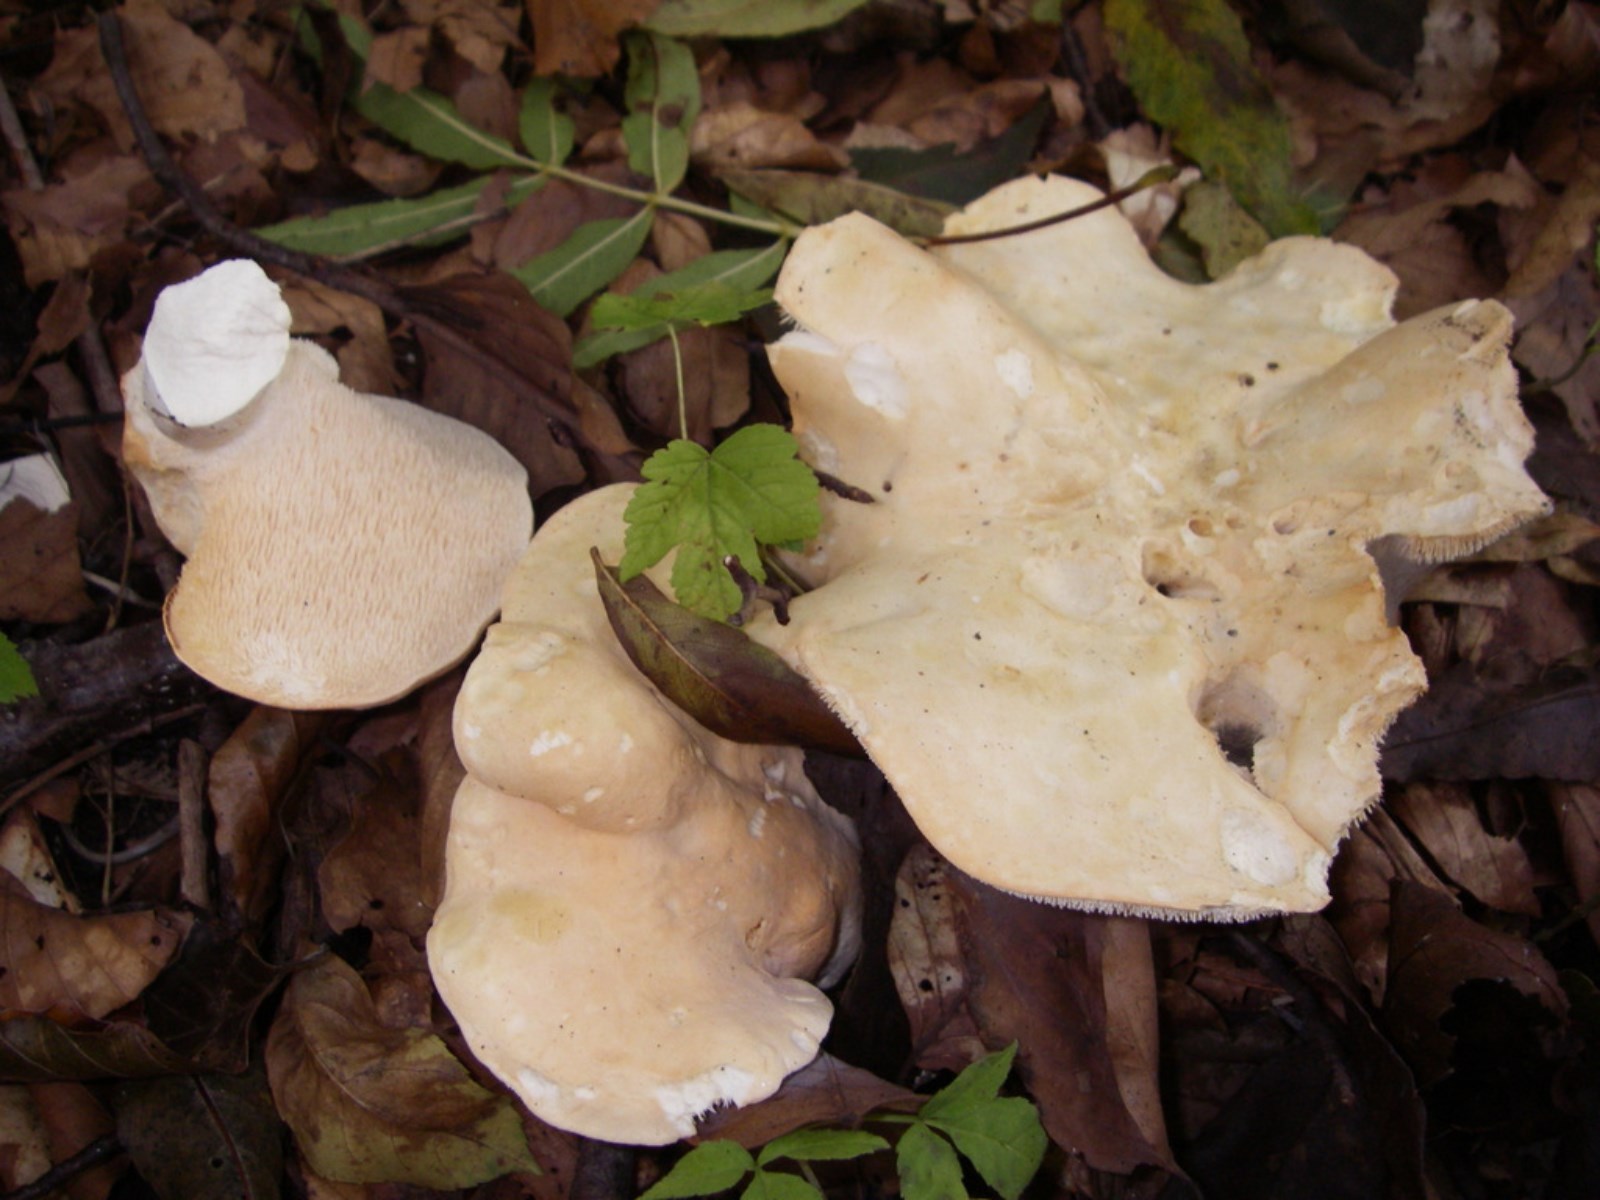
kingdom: Fungi
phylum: Basidiomycota
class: Agaricomycetes
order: Cantharellales
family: Hydnaceae
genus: Hydnum
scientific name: Hydnum repandum
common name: almindelig pigsvamp
